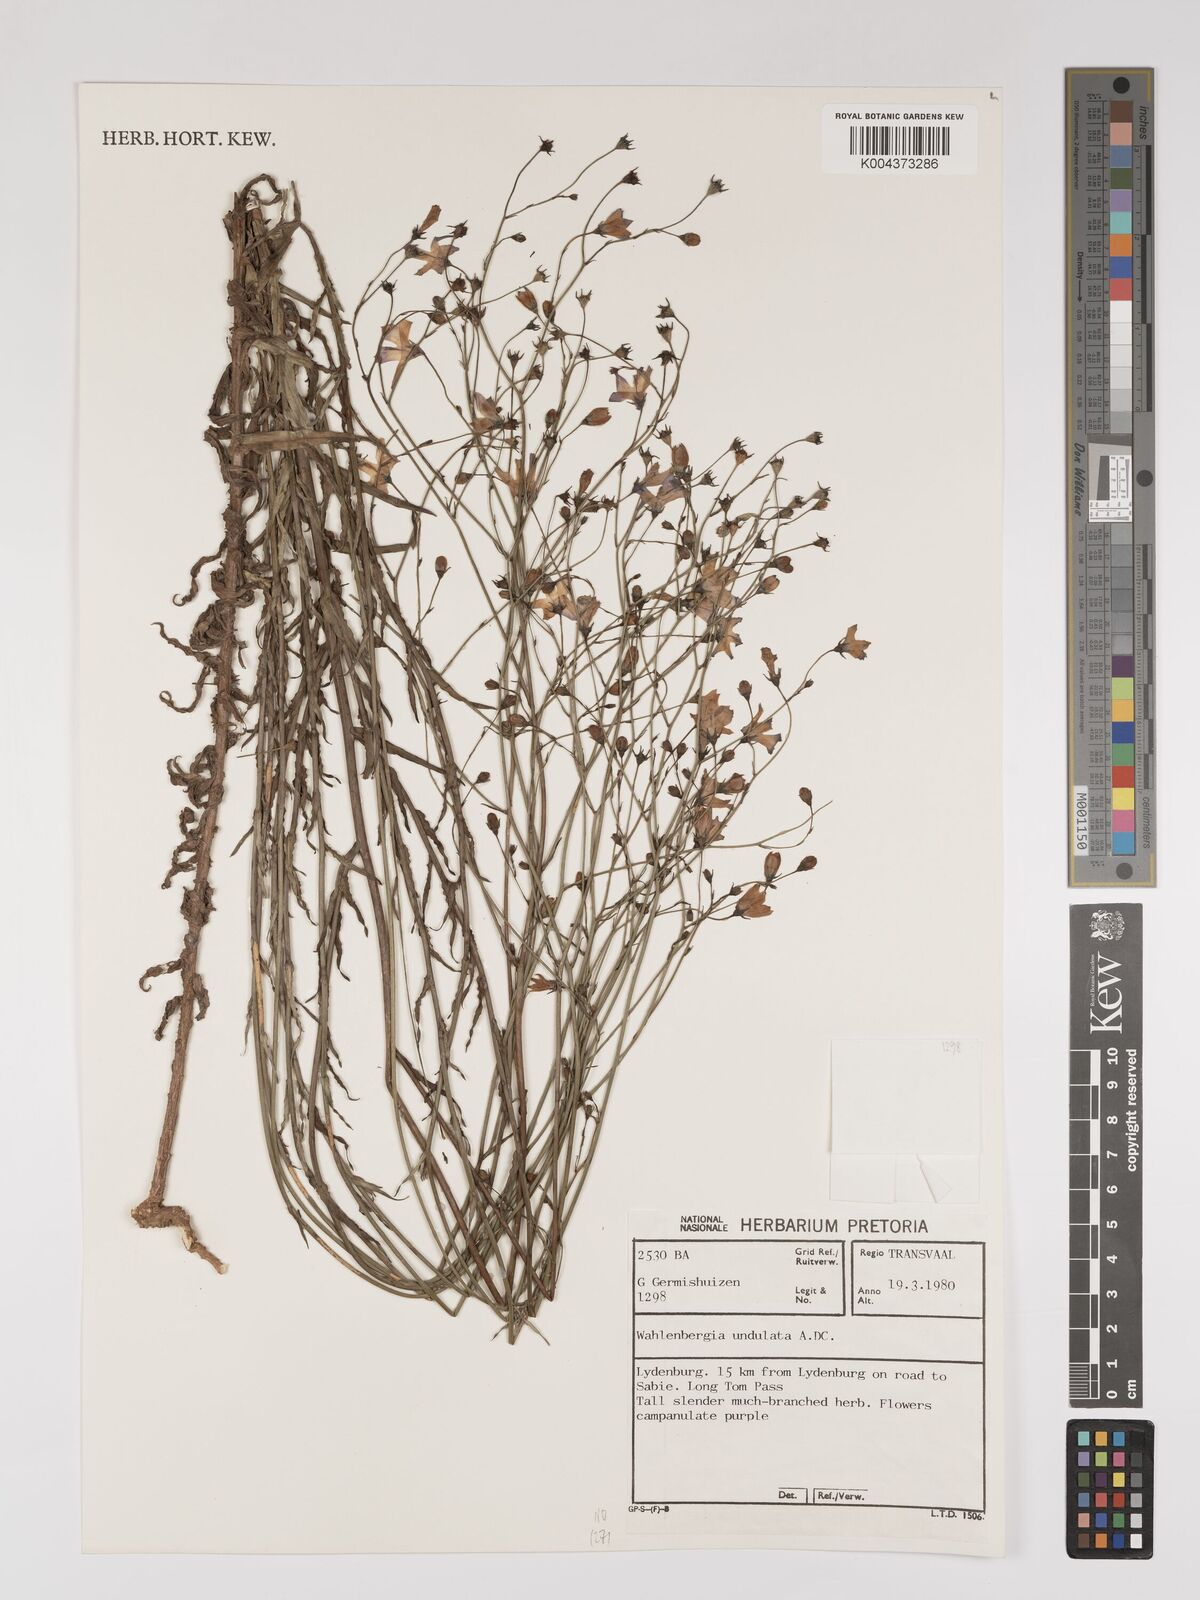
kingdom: Plantae
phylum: Tracheophyta
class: Magnoliopsida
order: Asterales
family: Campanulaceae
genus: Wahlenbergia
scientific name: Wahlenbergia undulata
